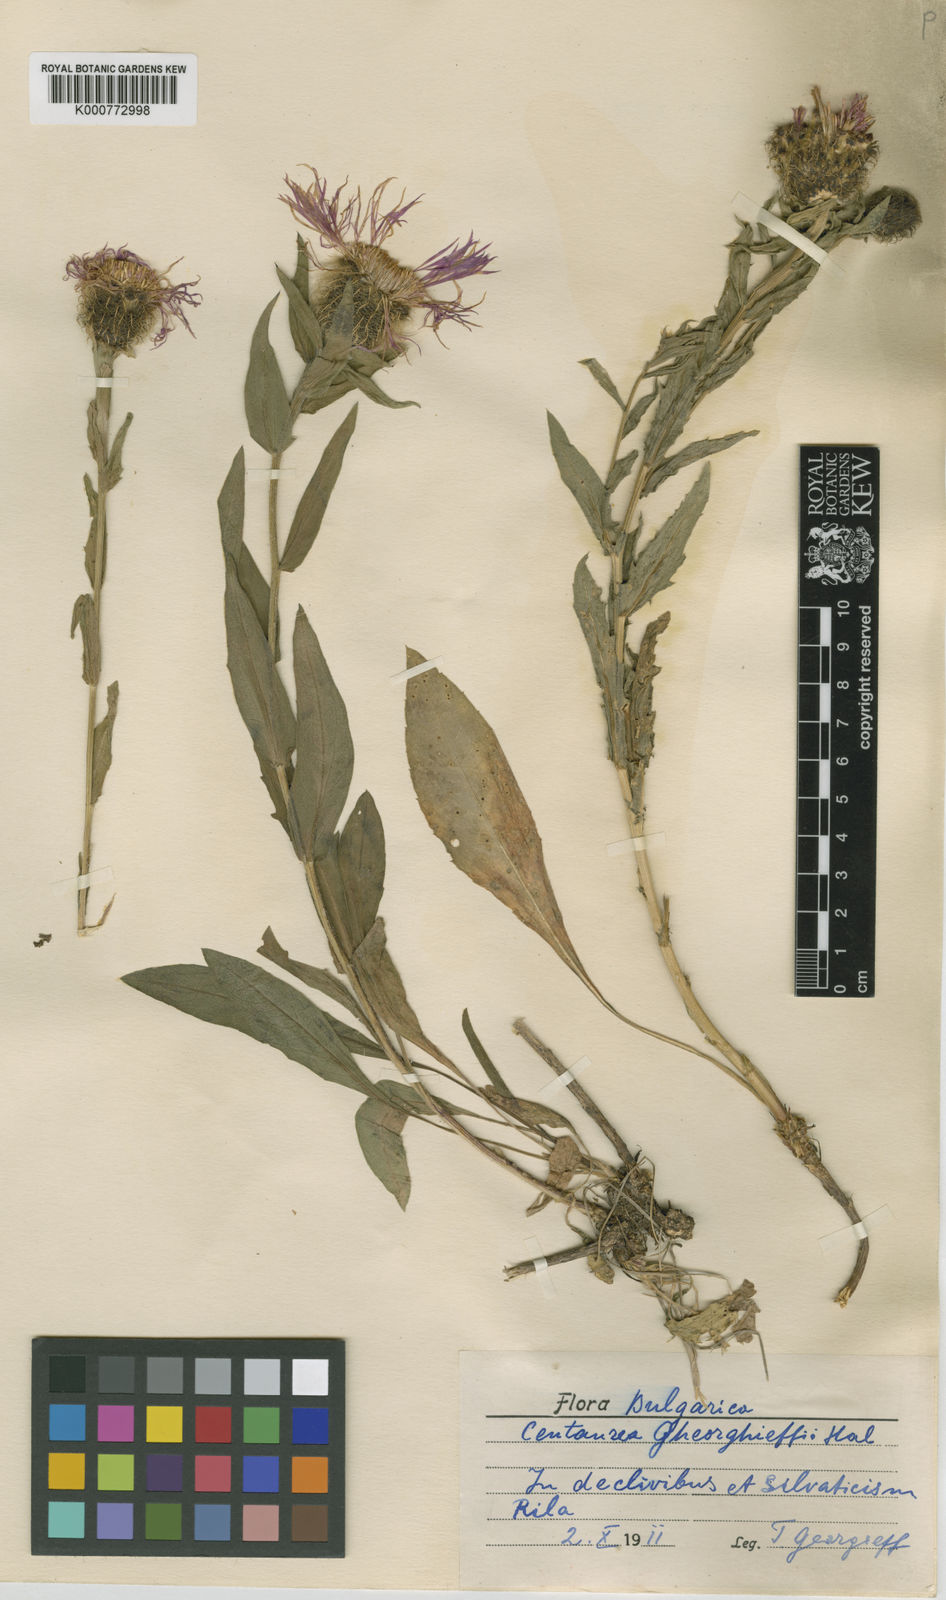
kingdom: Plantae
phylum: Tracheophyta
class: Magnoliopsida
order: Asterales
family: Asteraceae
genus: Centaurea
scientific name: Centaurea kerneriana
